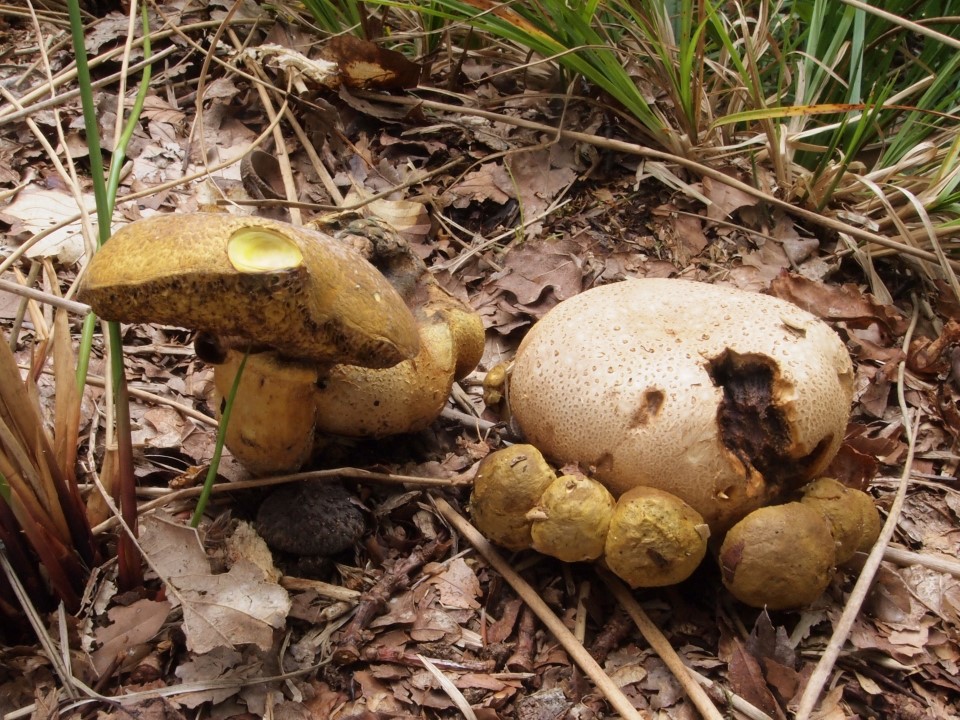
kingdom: Fungi
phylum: Basidiomycota
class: Agaricomycetes
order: Boletales
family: Boletaceae
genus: Pseudoboletus
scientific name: Pseudoboletus parasiticus
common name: snyltende rørhat
